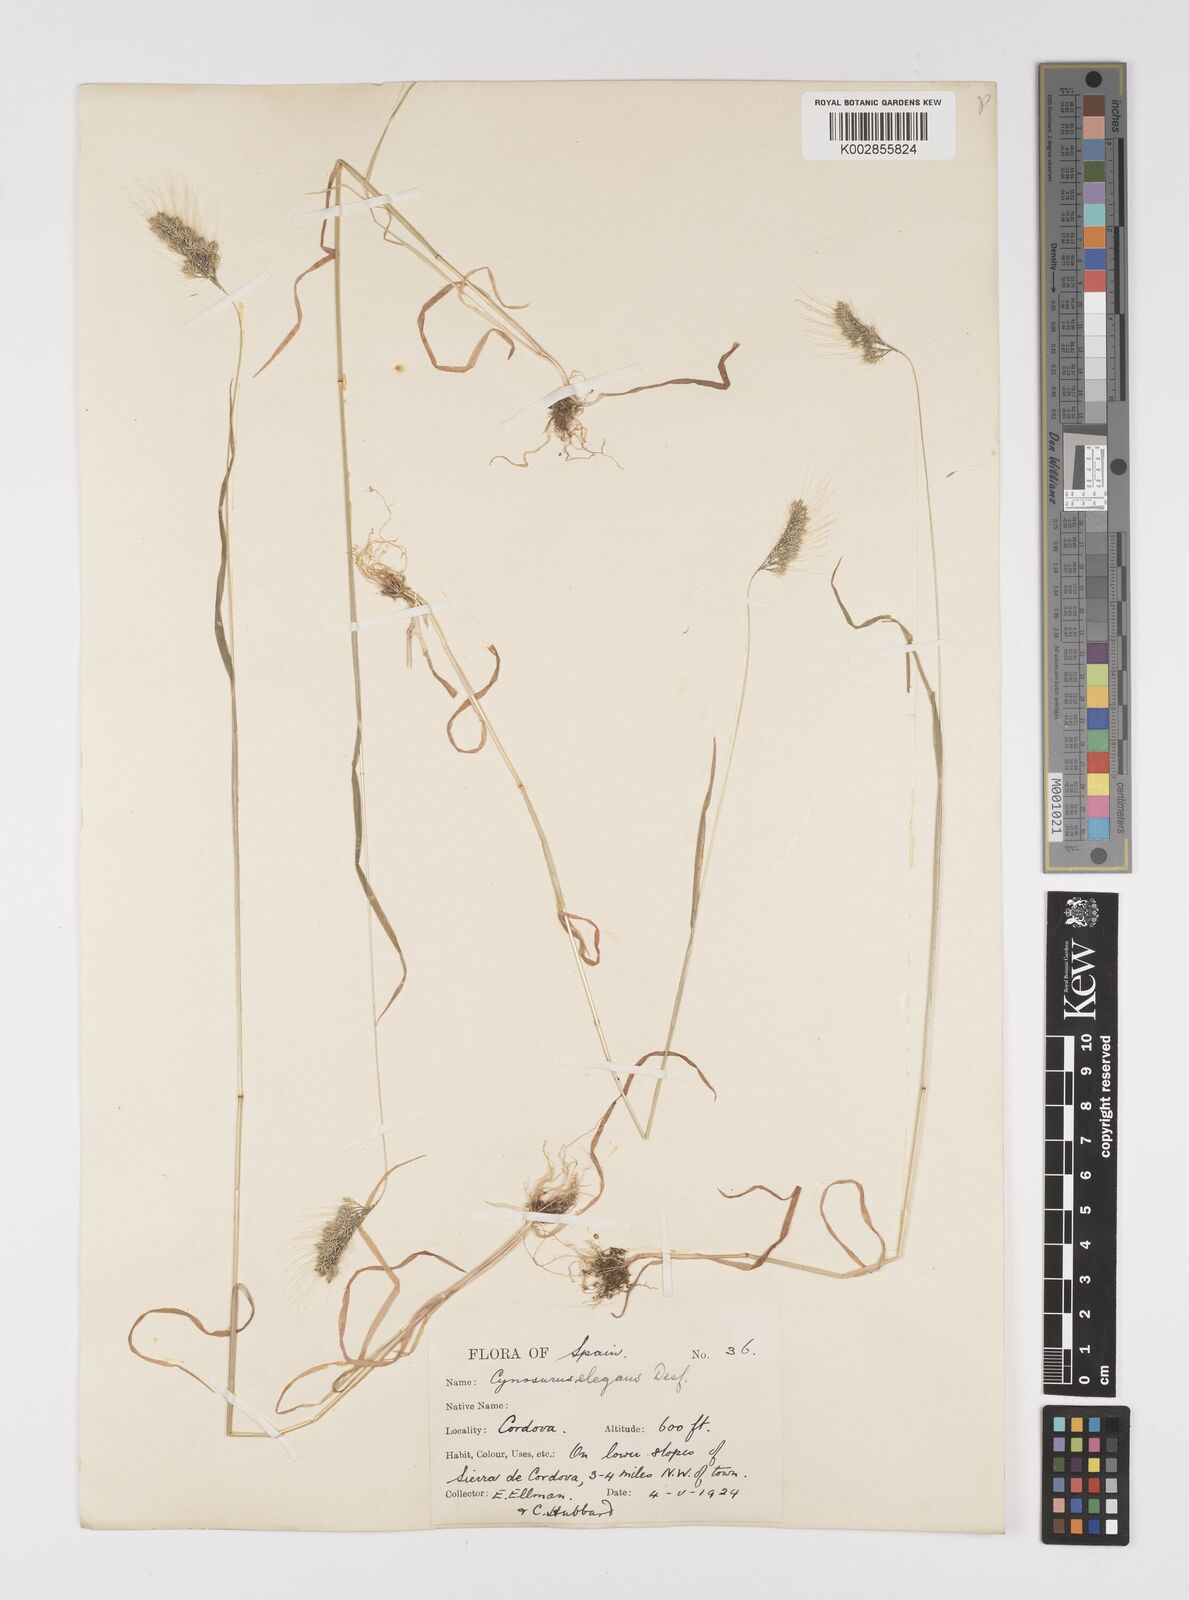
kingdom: Plantae
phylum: Tracheophyta
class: Liliopsida
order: Poales
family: Poaceae
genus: Cynosurus
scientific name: Cynosurus elegans
